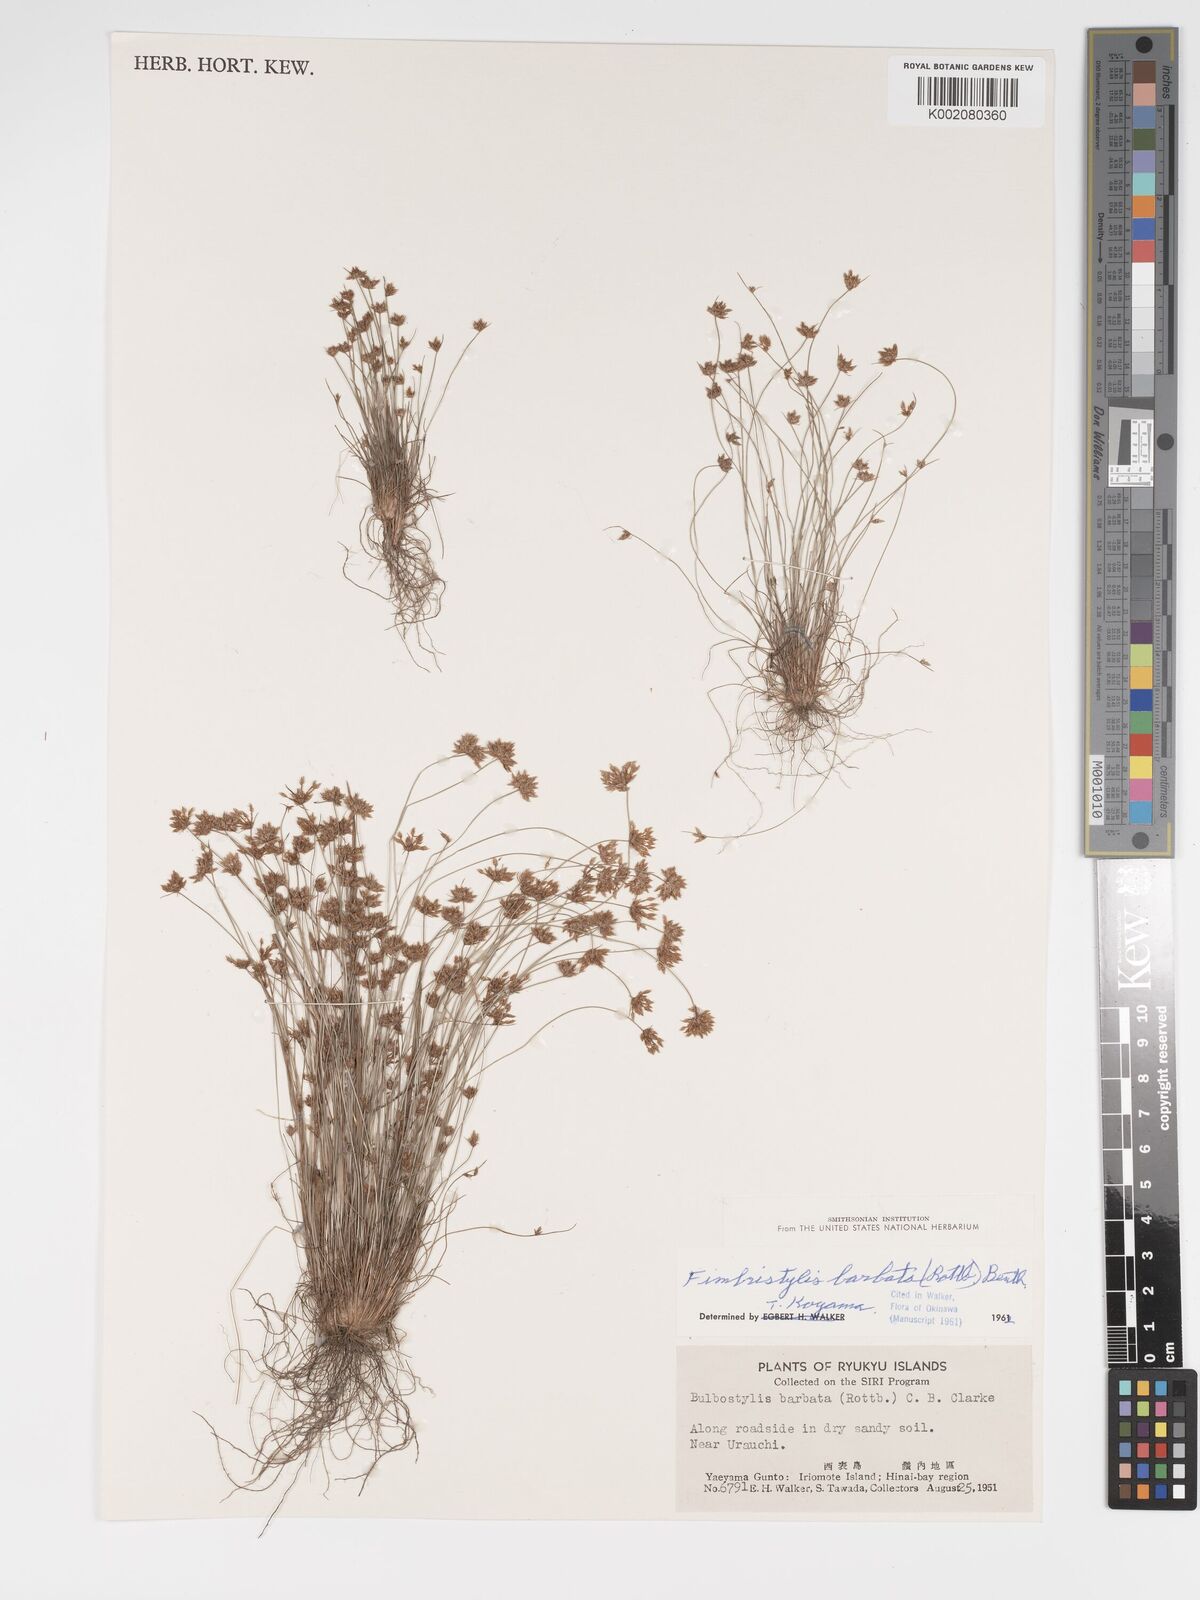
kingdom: Plantae
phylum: Tracheophyta
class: Liliopsida
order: Poales
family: Cyperaceae
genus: Bulbostylis
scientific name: Bulbostylis barbata
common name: Watergrass
